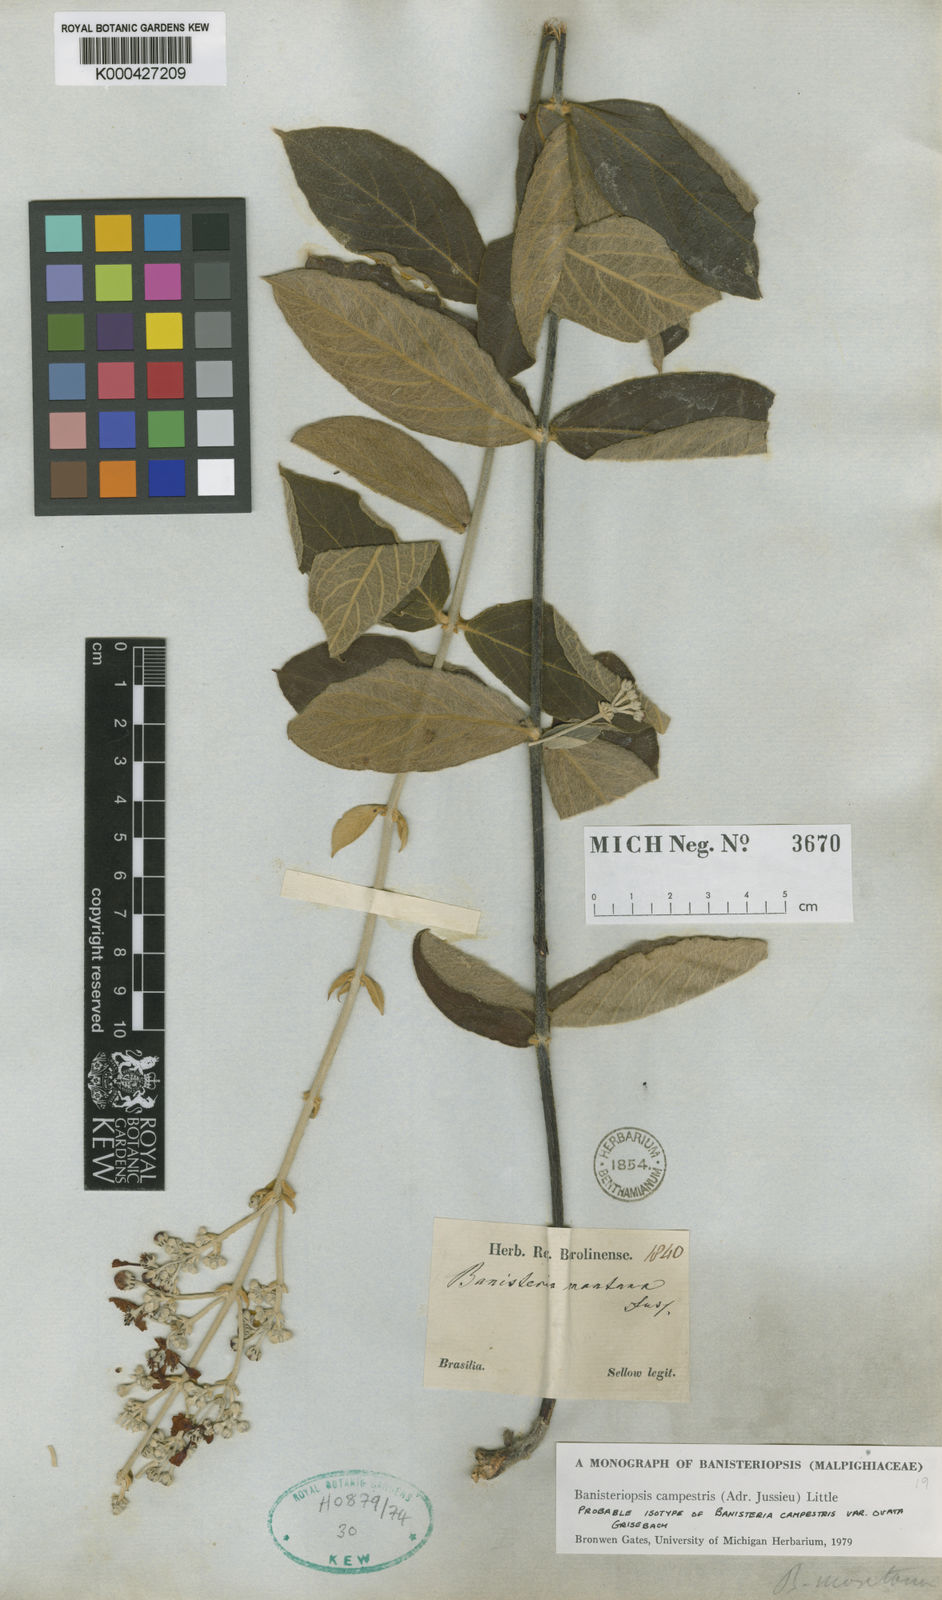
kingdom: Plantae
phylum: Tracheophyta
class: Magnoliopsida
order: Malpighiales
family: Malpighiaceae
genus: Banisteriopsis
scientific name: Banisteriopsis campestris
